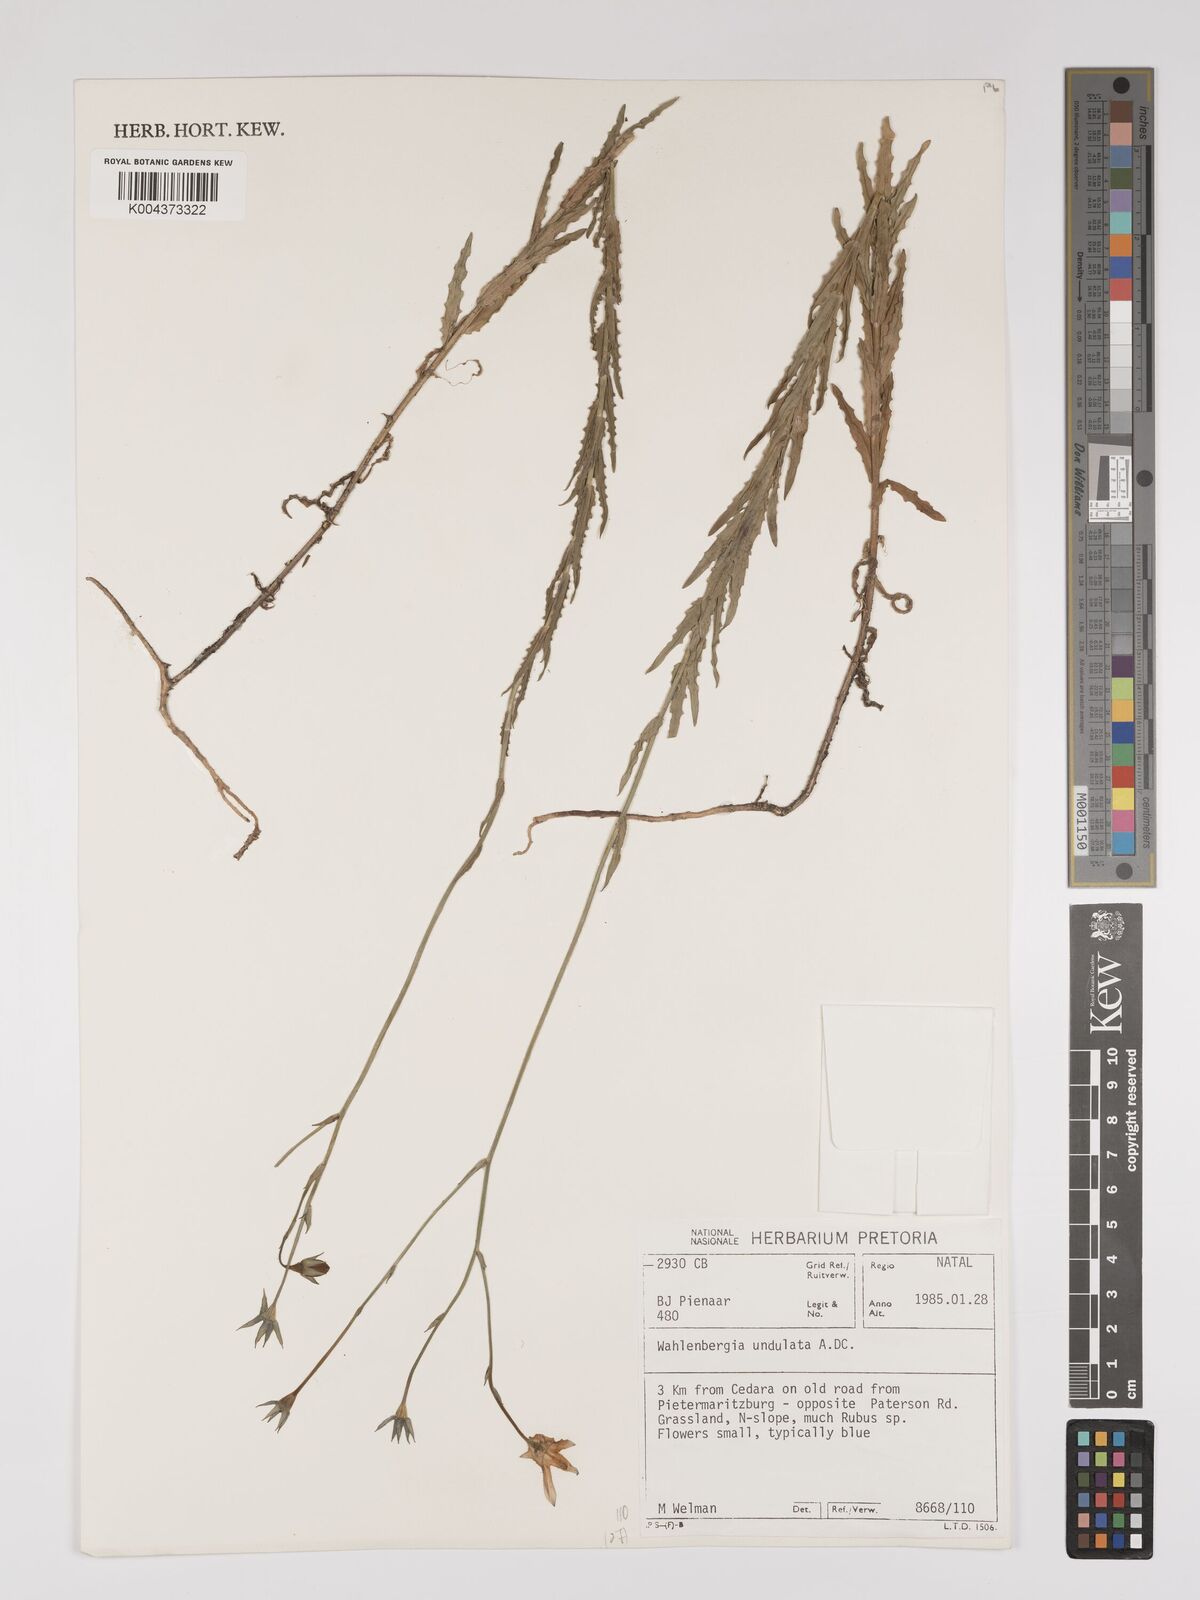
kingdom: Plantae
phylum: Tracheophyta
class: Magnoliopsida
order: Asterales
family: Campanulaceae
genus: Wahlenbergia
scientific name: Wahlenbergia undulata
